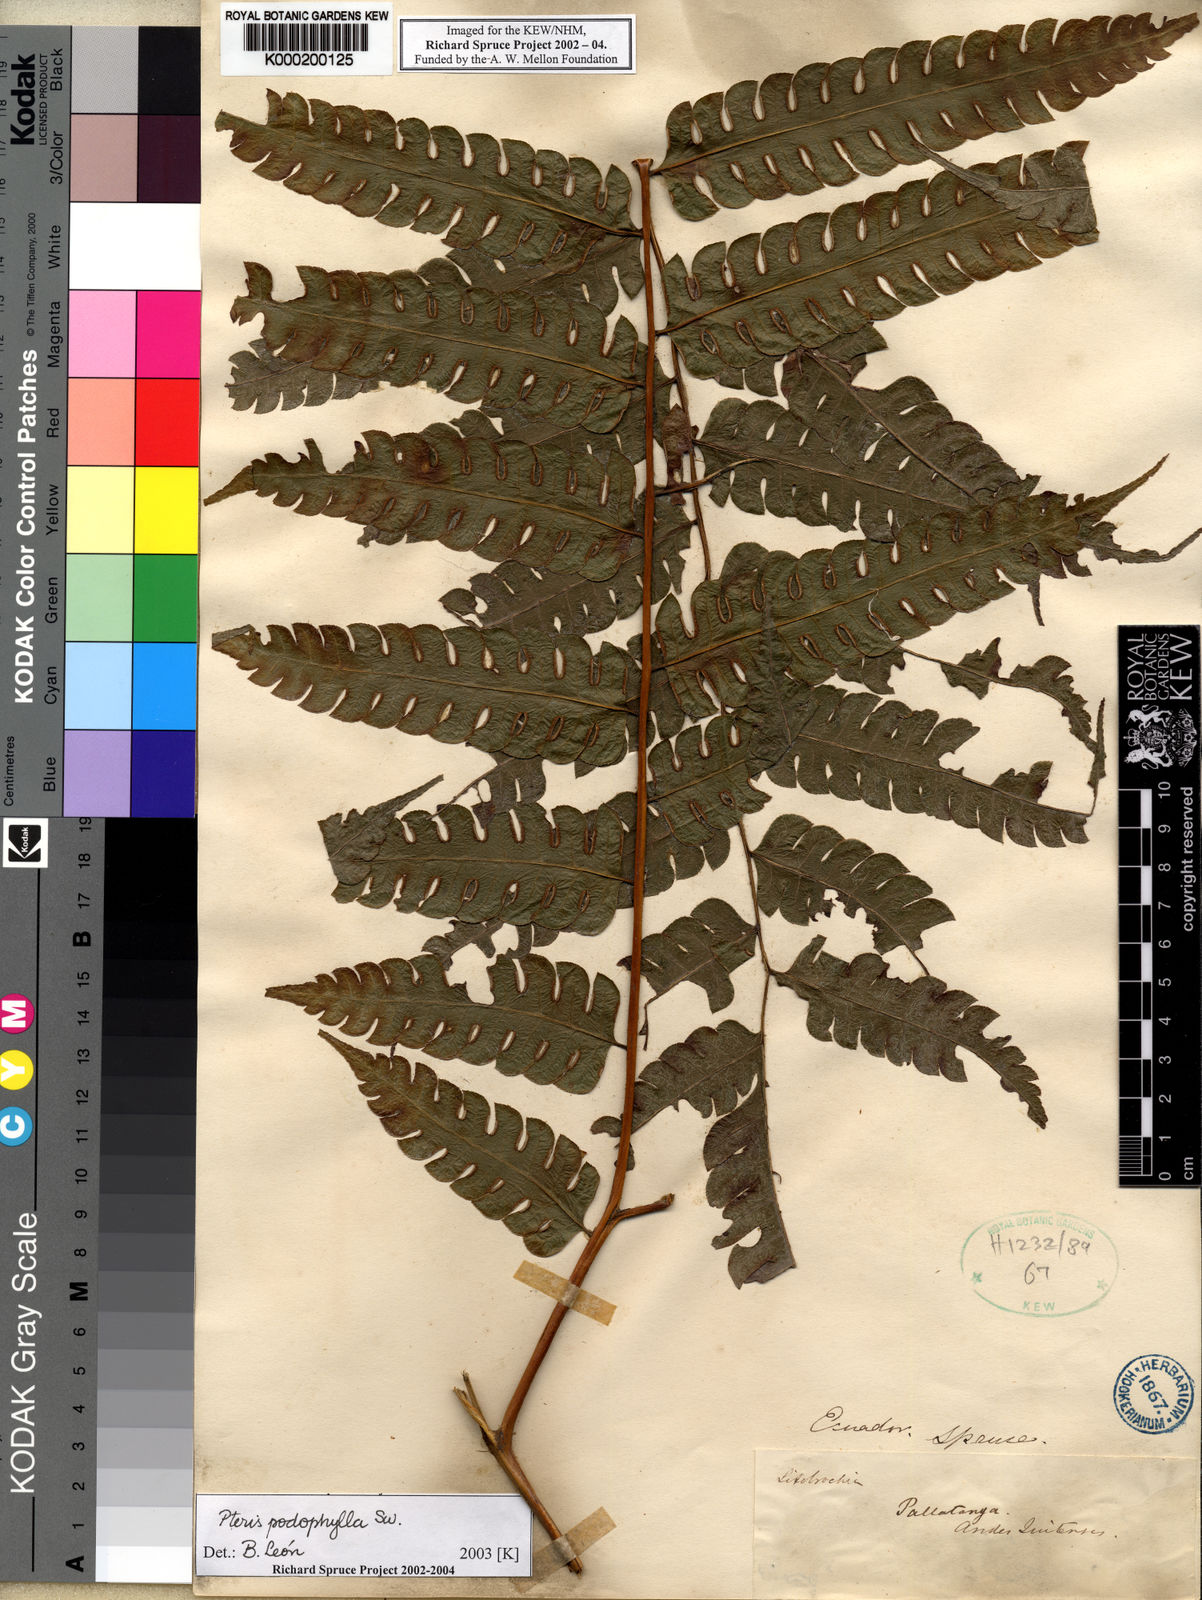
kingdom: Plantae
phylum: Tracheophyta
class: Polypodiopsida
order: Polypodiales
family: Pteridaceae
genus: Pteris
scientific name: Pteris
